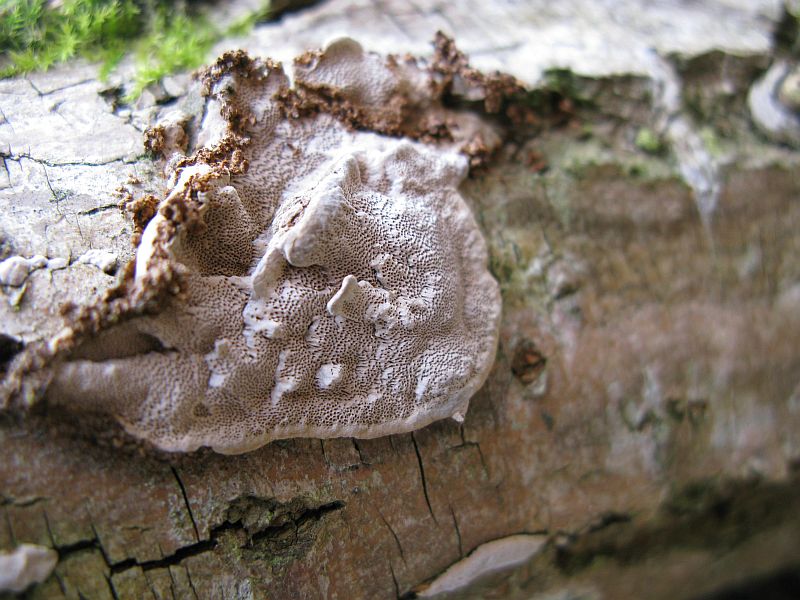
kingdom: Fungi
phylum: Basidiomycota
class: Agaricomycetes
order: Hymenochaetales
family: Hymenochaetaceae
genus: Phellinopsis
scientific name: Phellinopsis conchata
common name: pile-ildporesvamp
